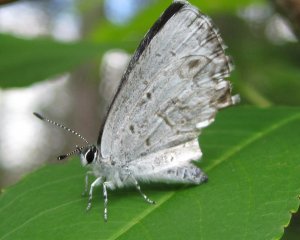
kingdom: Animalia
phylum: Arthropoda
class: Insecta
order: Lepidoptera
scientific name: Lepidoptera
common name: Butterflies
